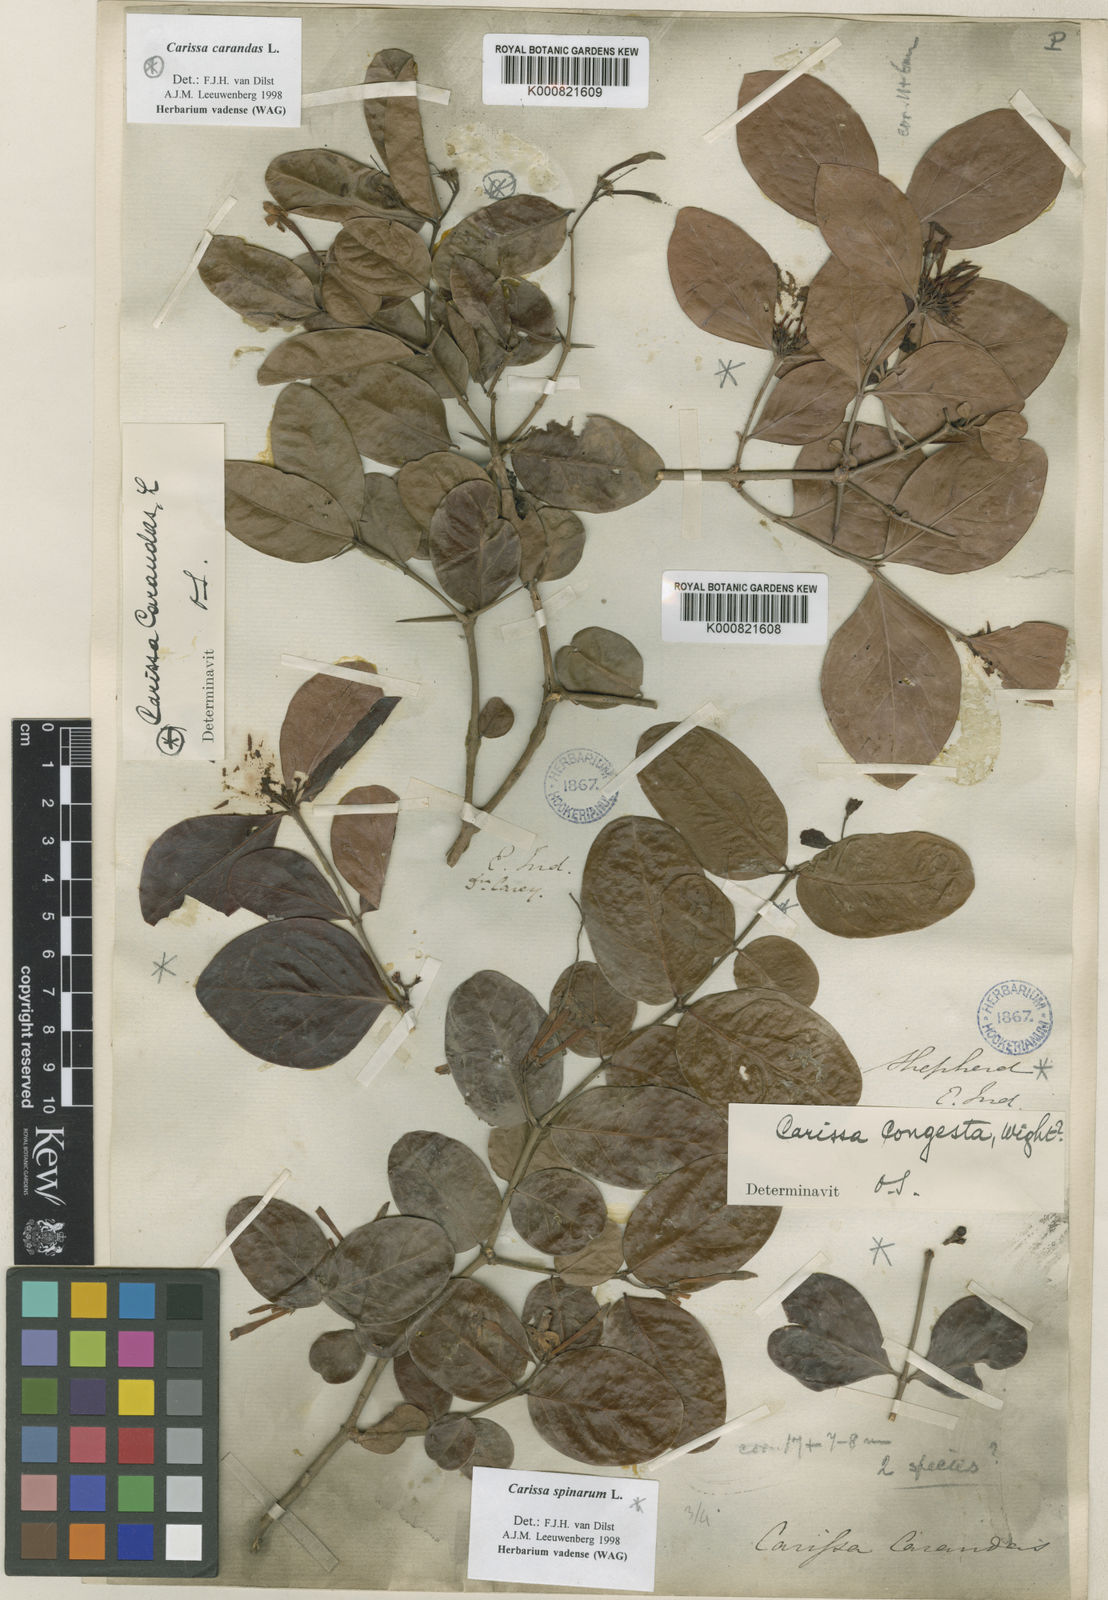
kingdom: Plantae
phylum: Tracheophyta
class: Magnoliopsida
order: Gentianales
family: Apocynaceae
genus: Carissa
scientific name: Carissa spinarum
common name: Egyptian carissa
